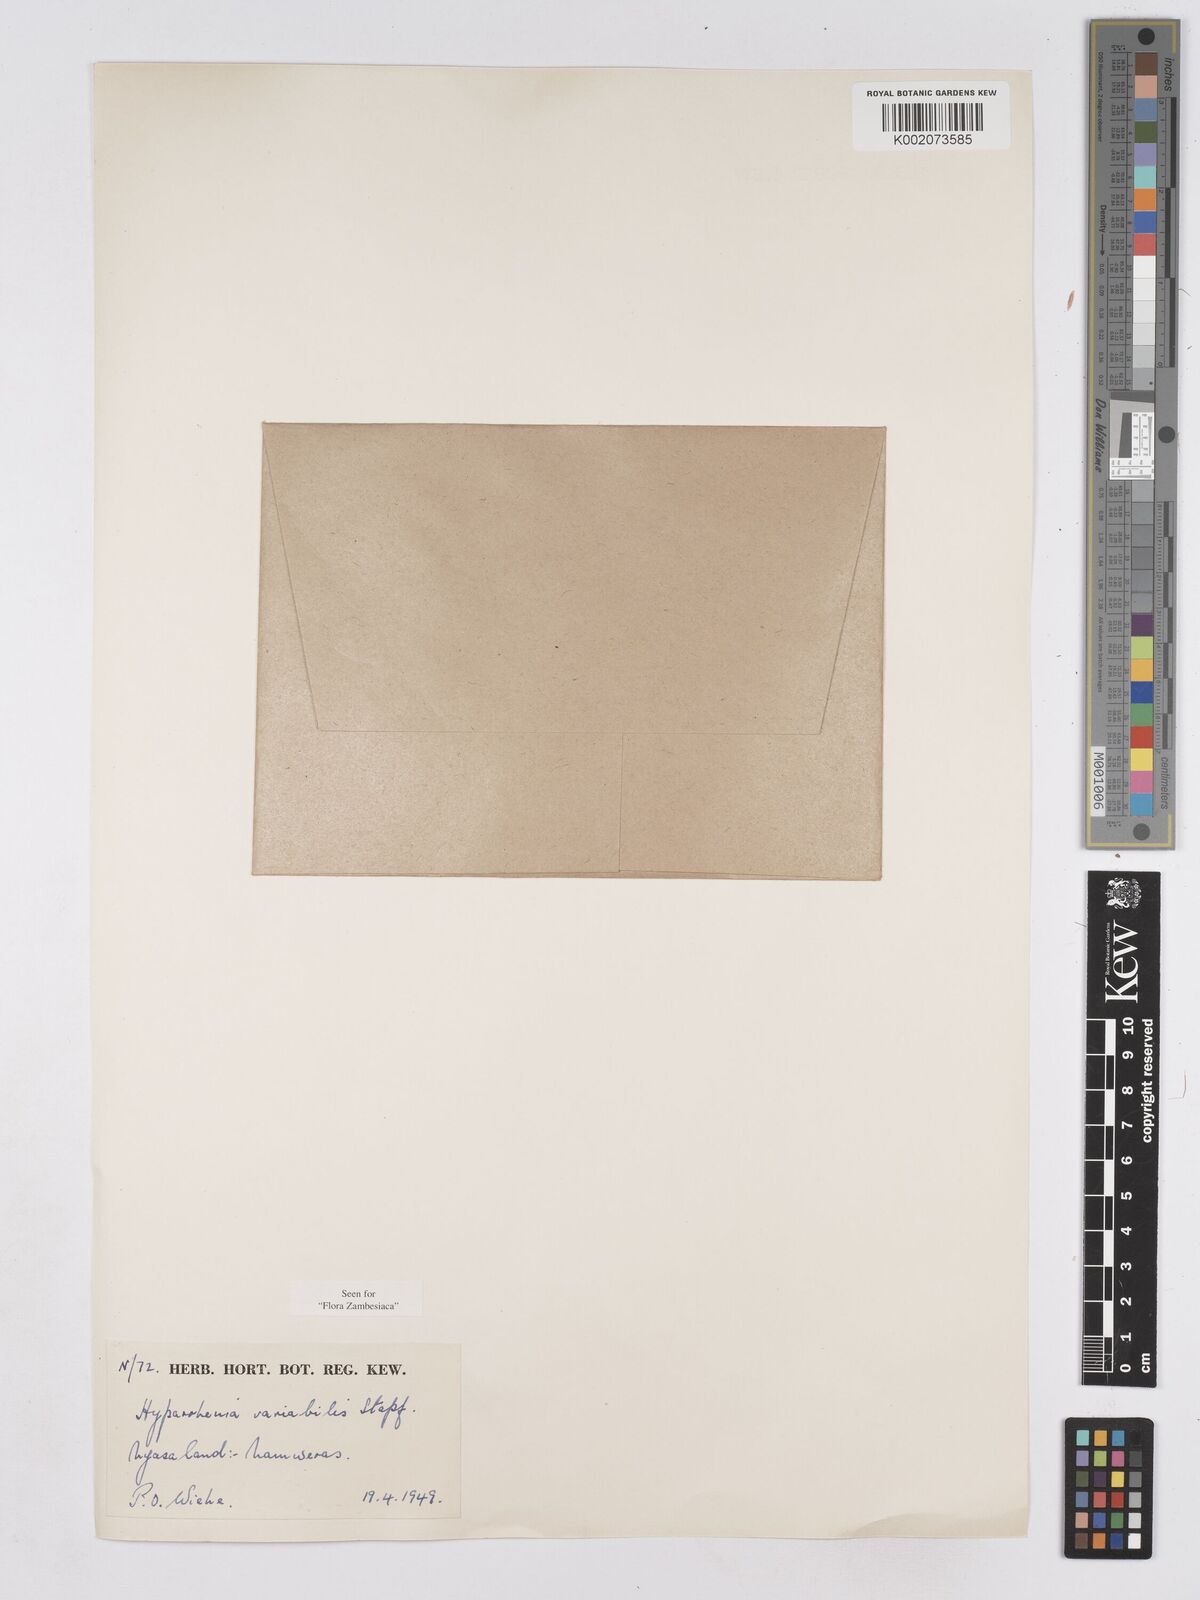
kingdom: Plantae
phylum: Tracheophyta
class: Liliopsida
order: Poales
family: Poaceae
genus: Hyparrhenia
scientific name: Hyparrhenia variabilis
